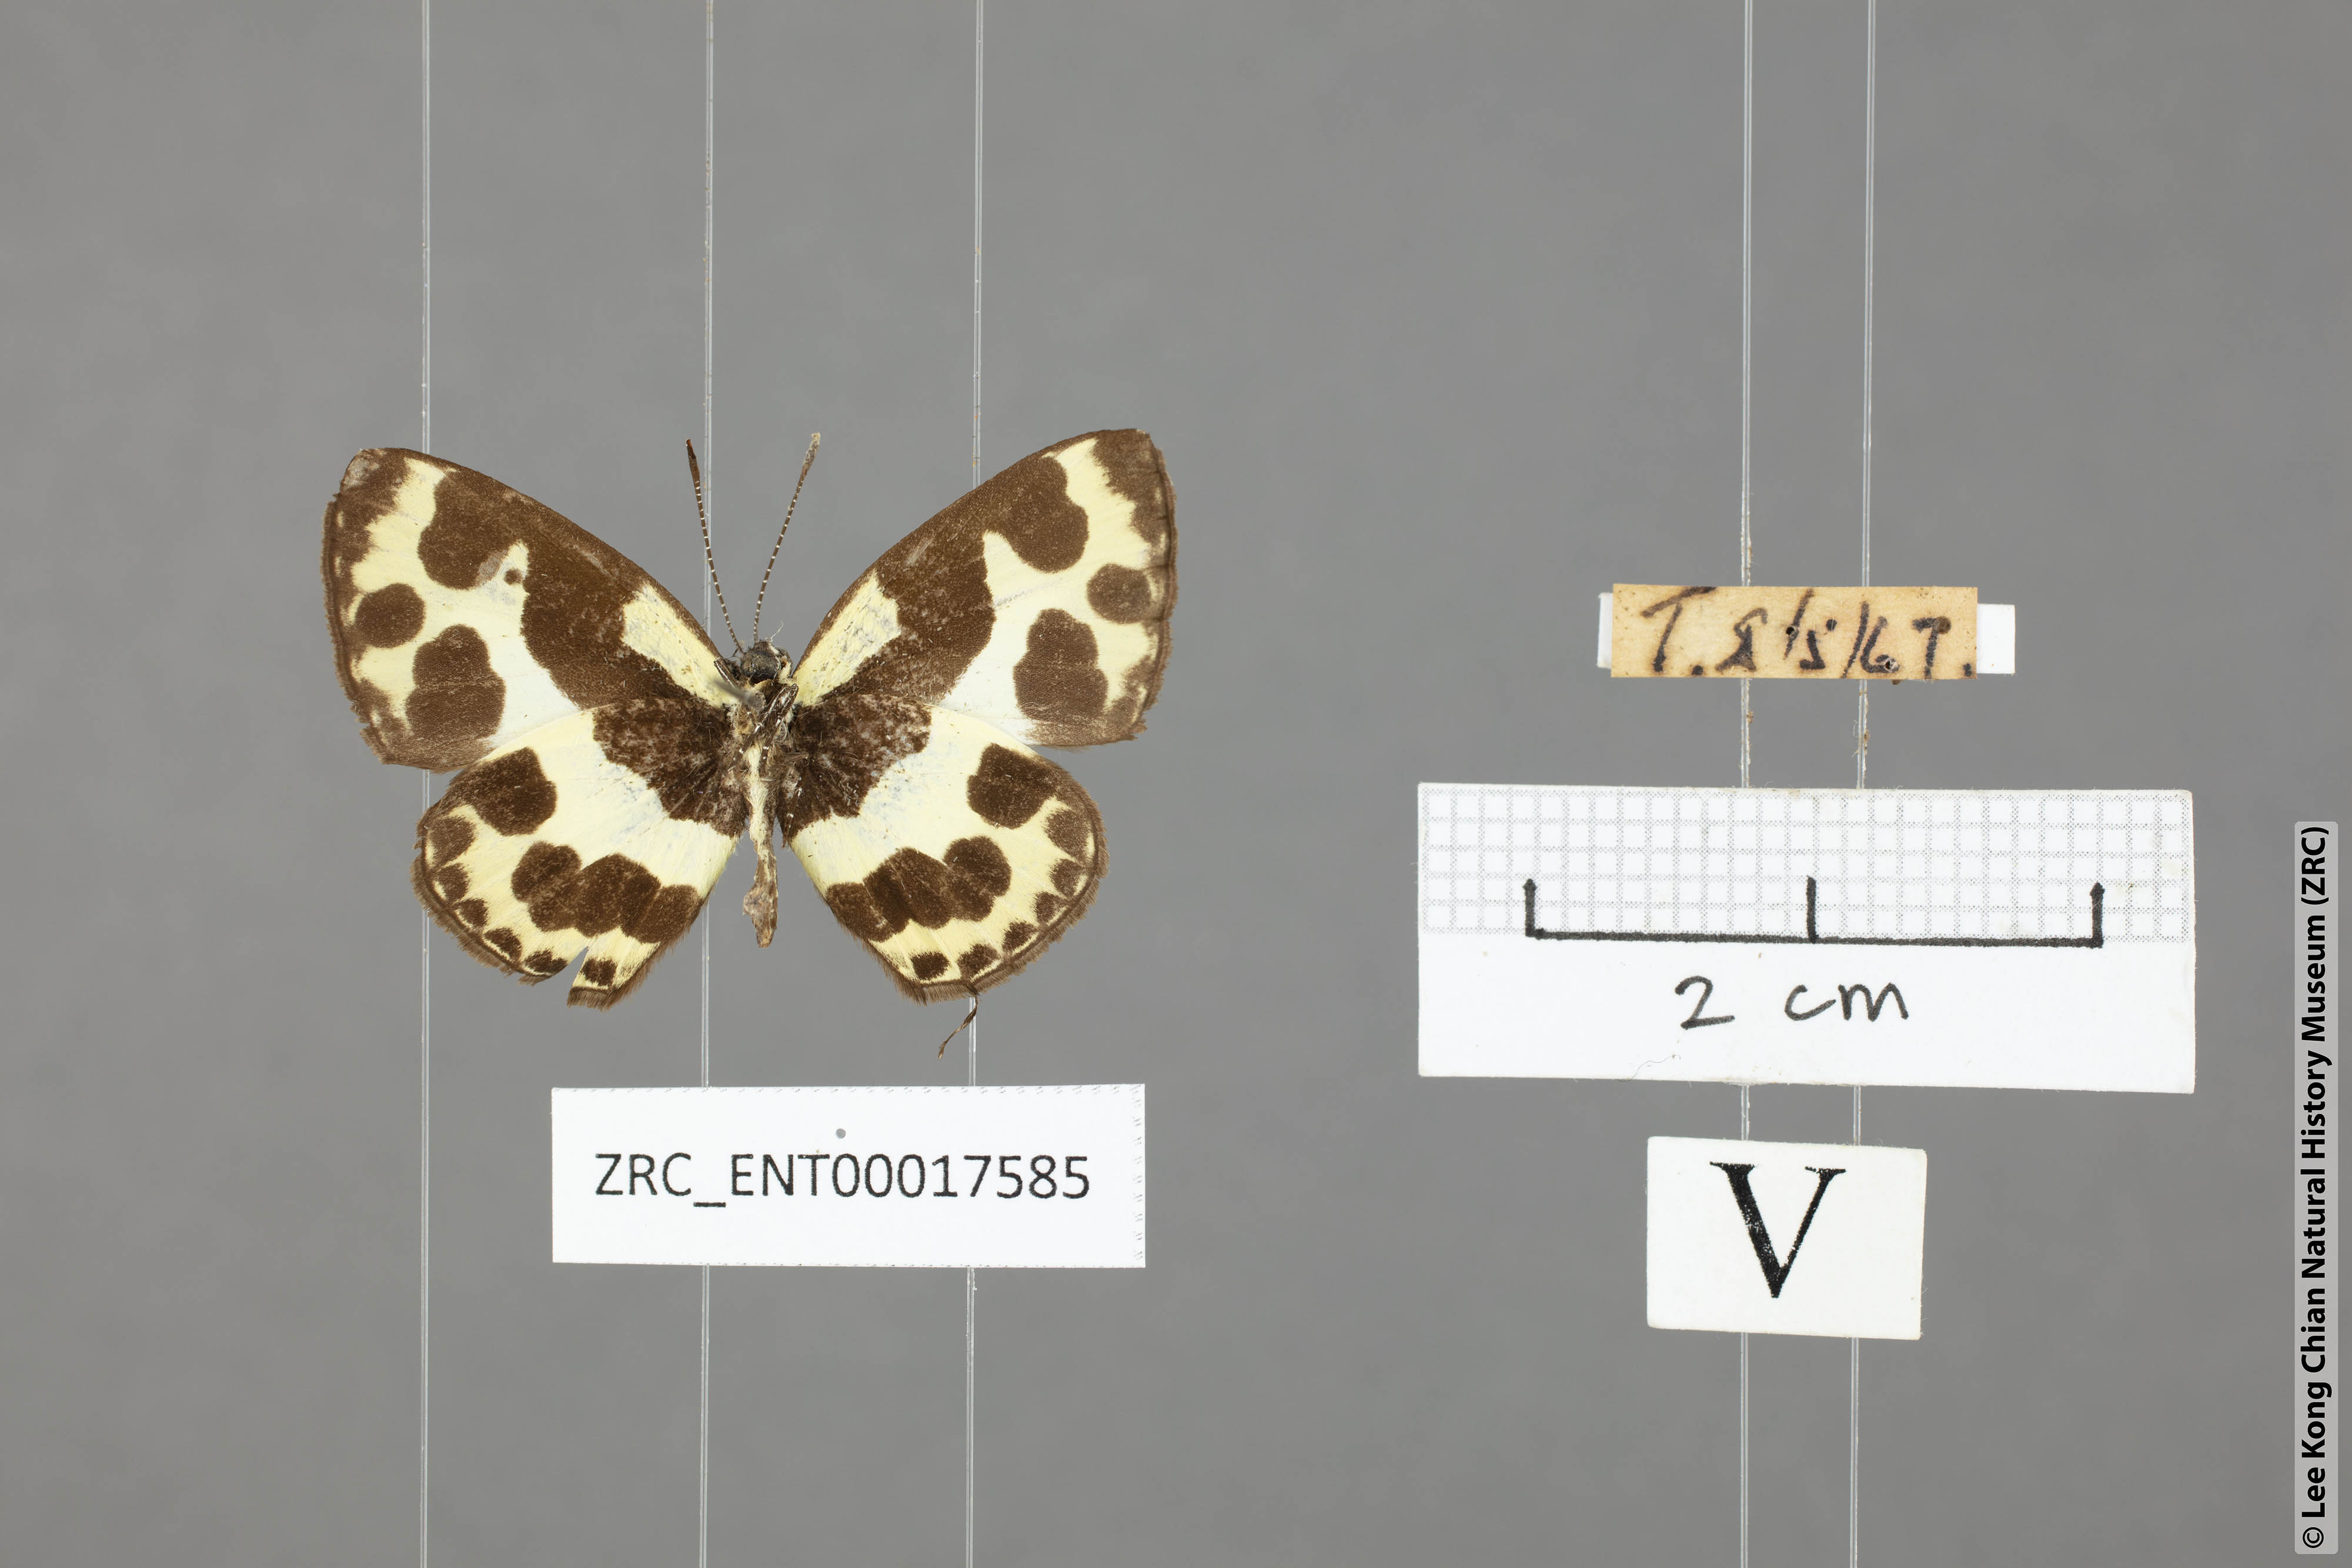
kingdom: Animalia
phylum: Arthropoda
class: Insecta
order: Lepidoptera
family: Lycaenidae
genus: Caleta
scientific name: Caleta elna
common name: Elbowed pierrot
